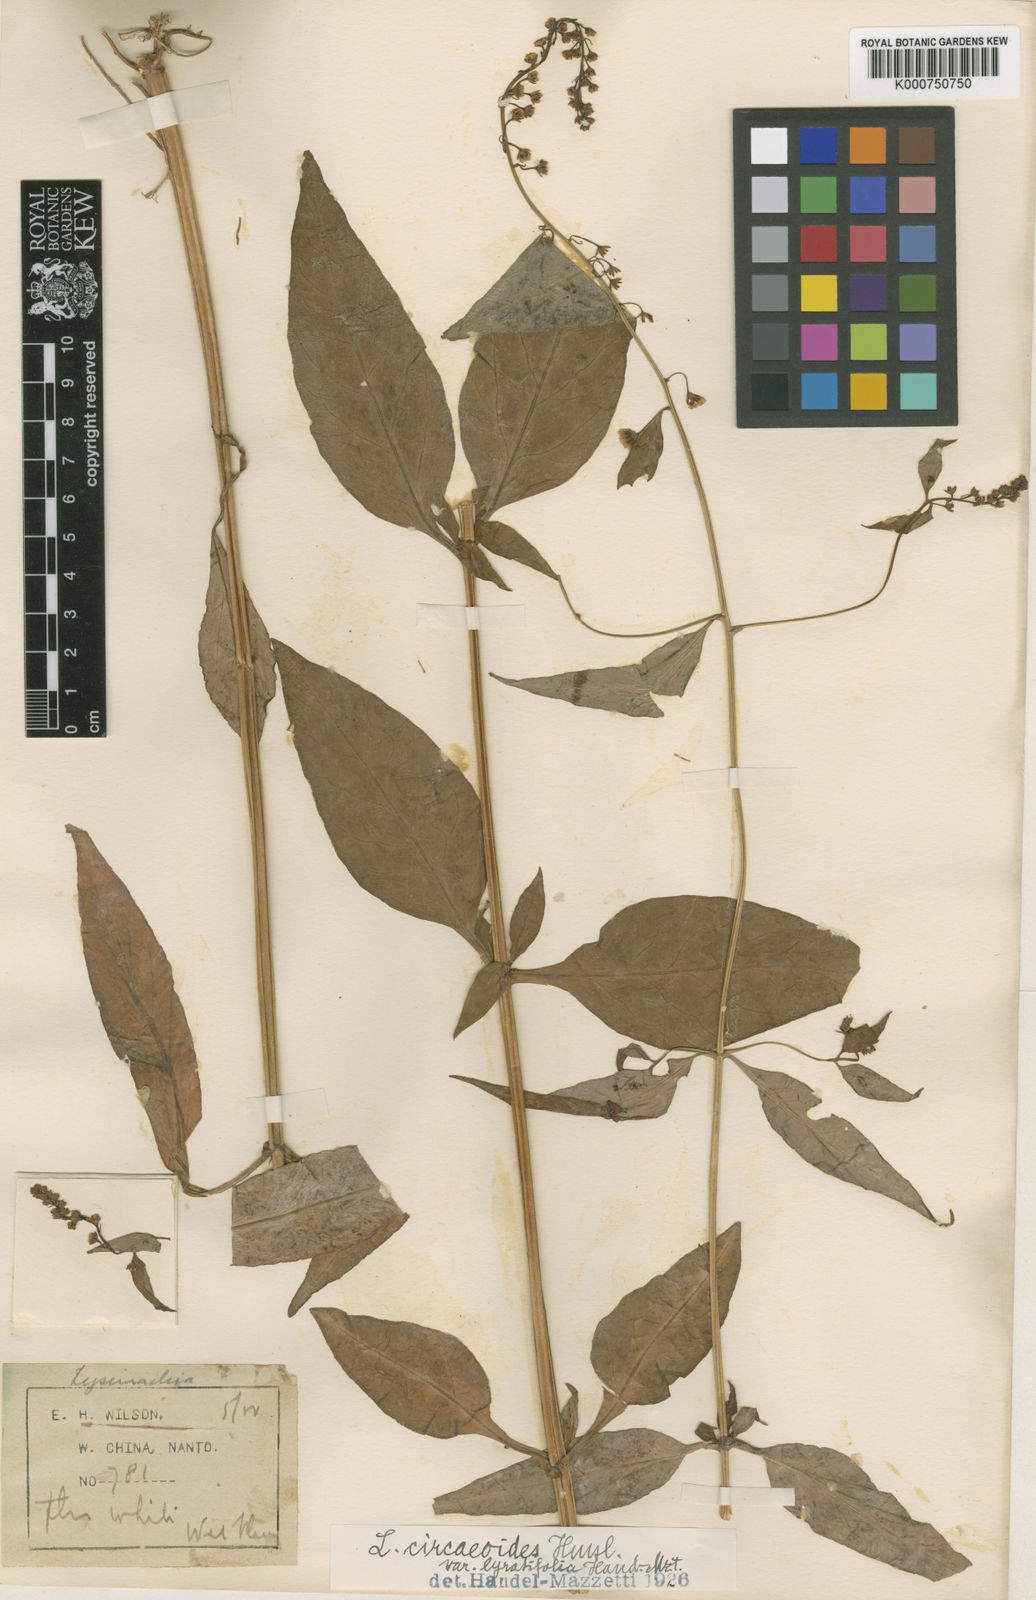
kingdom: Plantae
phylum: Tracheophyta
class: Magnoliopsida
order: Ericales
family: Primulaceae
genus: Lysimachia
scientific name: Lysimachia circaeoides
